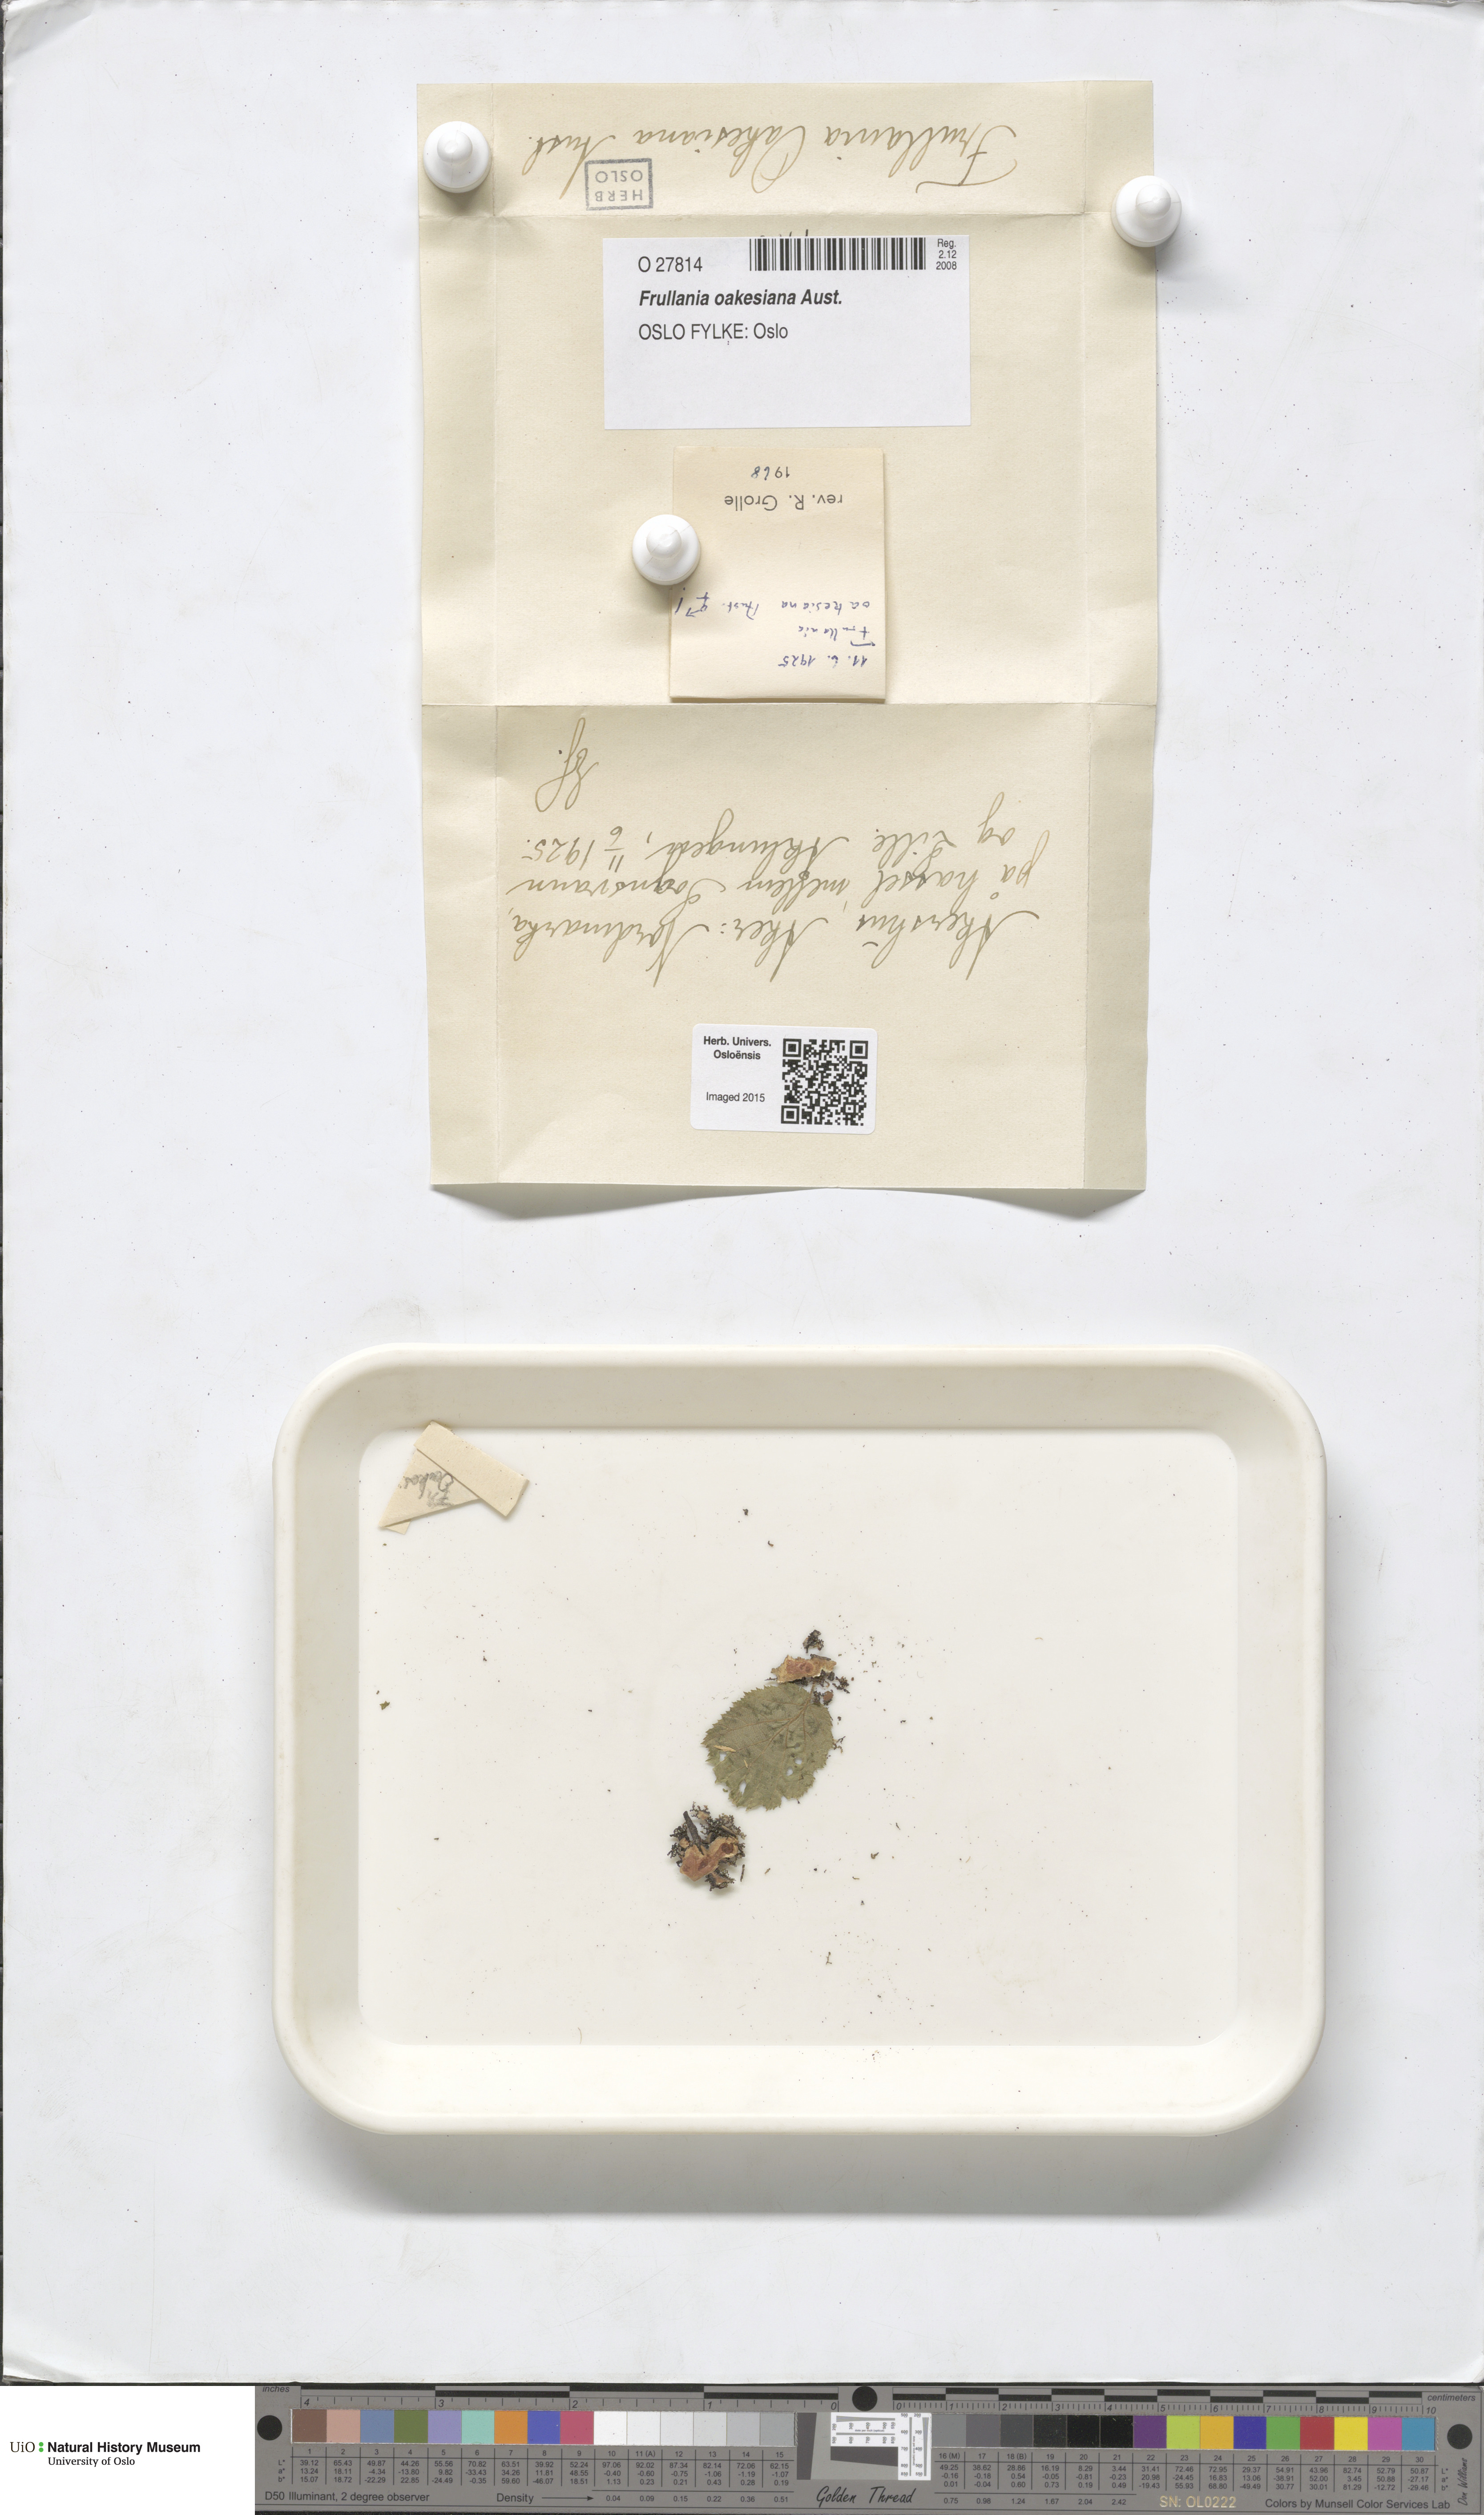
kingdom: Plantae
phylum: Marchantiophyta
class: Jungermanniopsida
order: Porellales
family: Frullaniaceae
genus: Frullania
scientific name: Frullania oakesiana
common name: Oakes  scalewort
